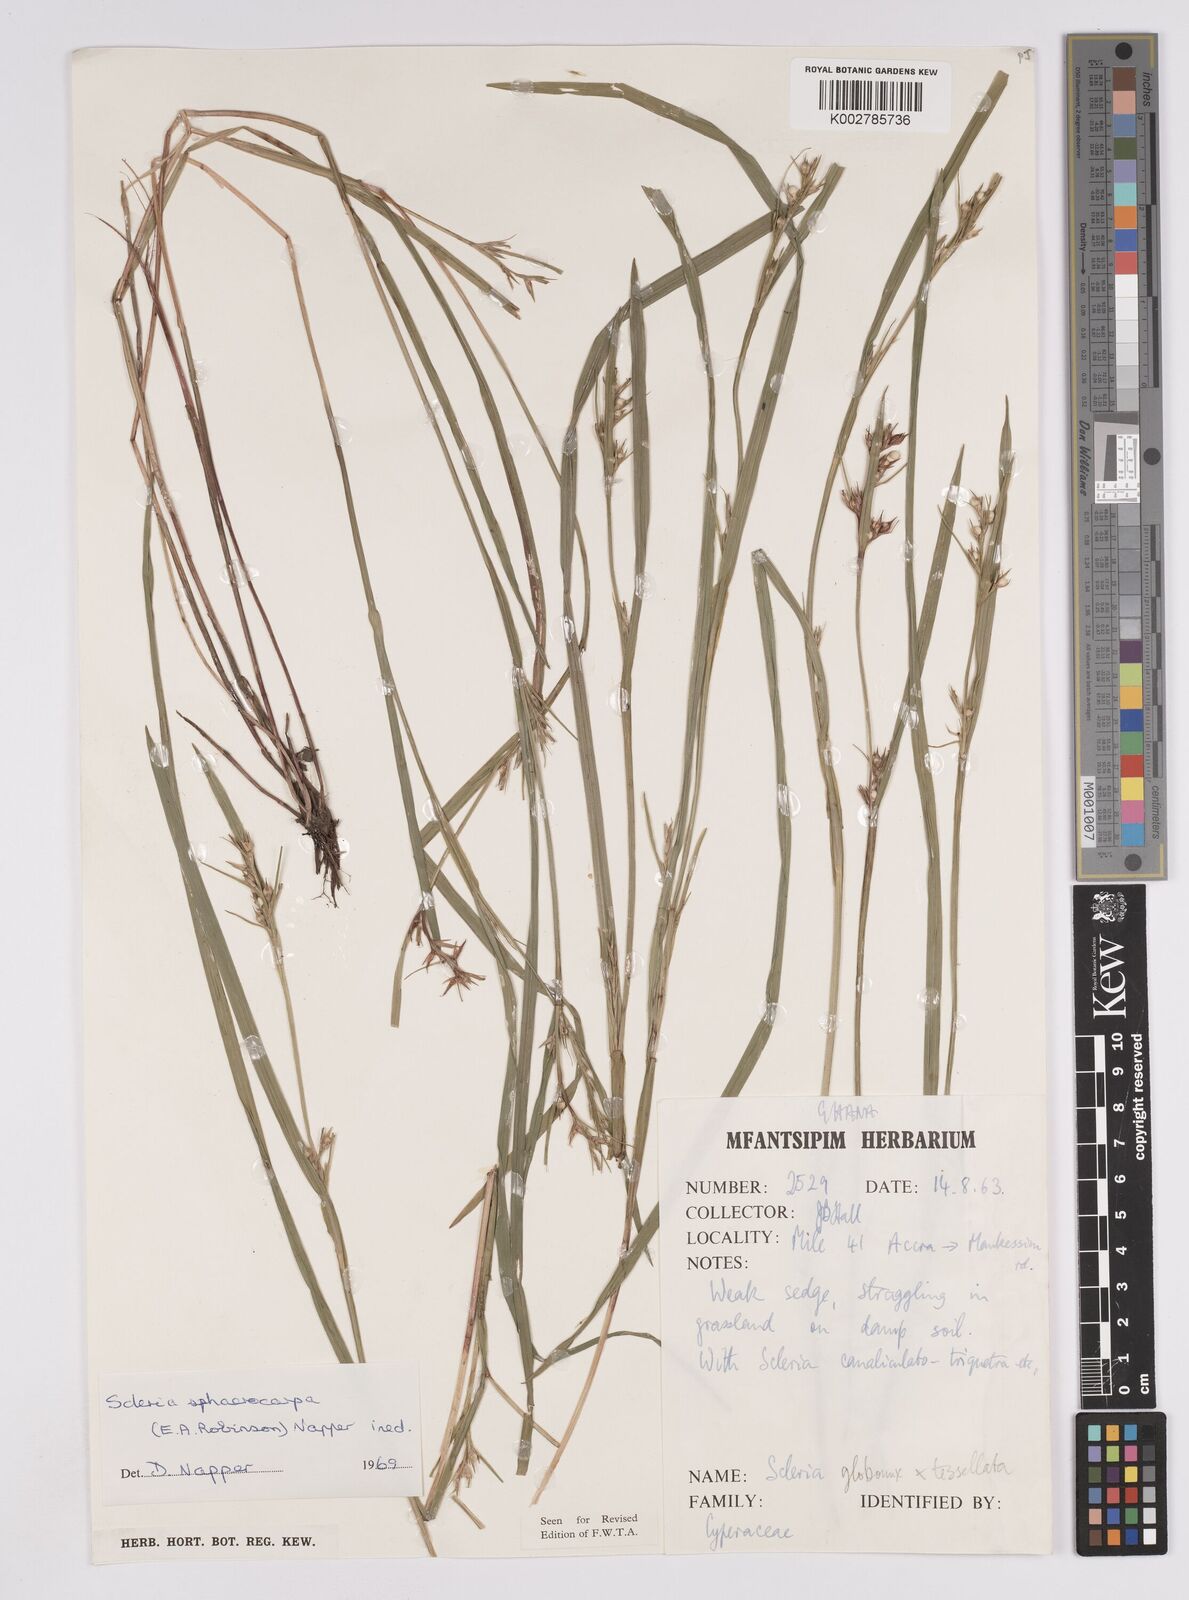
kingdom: Plantae
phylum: Tracheophyta
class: Liliopsida
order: Poales
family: Cyperaceae
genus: Scleria
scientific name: Scleria tessellata
